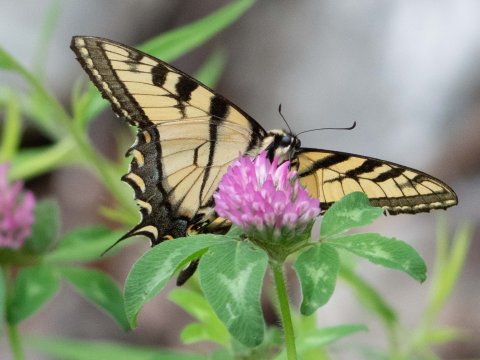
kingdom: Animalia
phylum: Arthropoda
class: Insecta
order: Lepidoptera
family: Papilionidae
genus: Pterourus
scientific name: Pterourus canadensis
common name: Canadian Tiger Swallowtail
